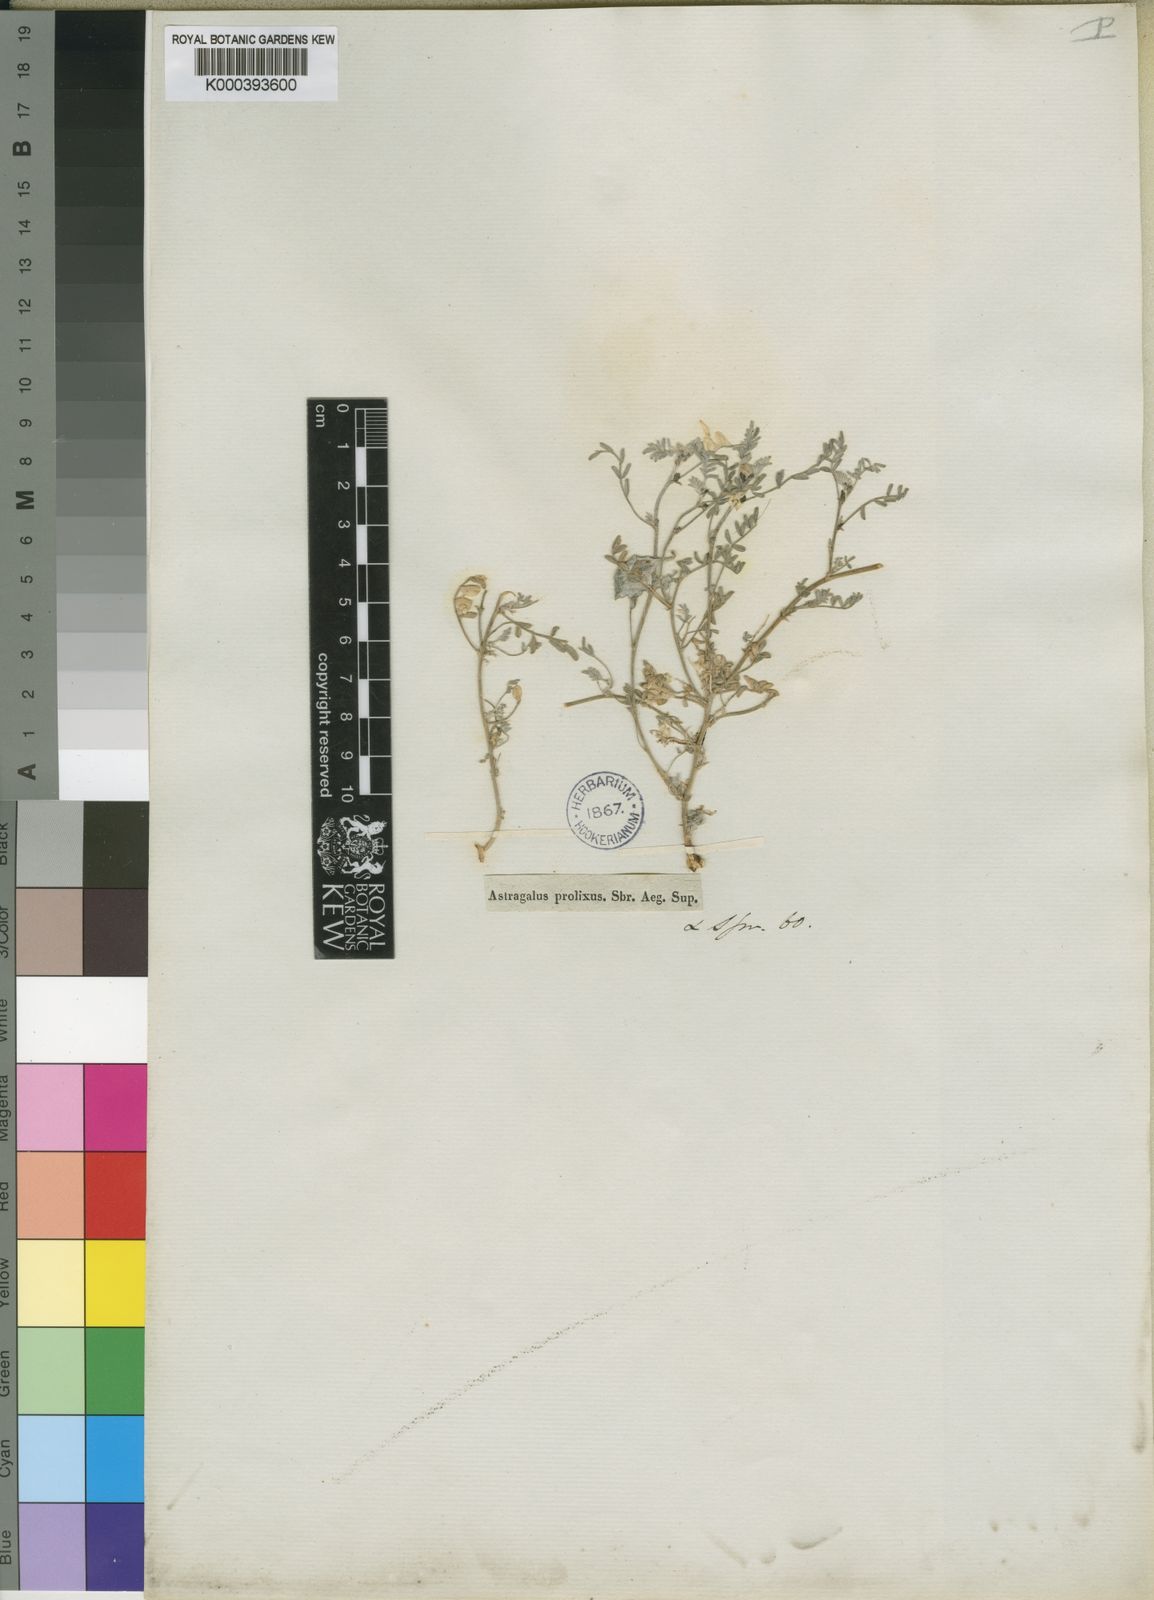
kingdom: Plantae
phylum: Tracheophyta
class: Magnoliopsida
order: Fabales
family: Fabaceae
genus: Astragalus
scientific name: Astragalus
